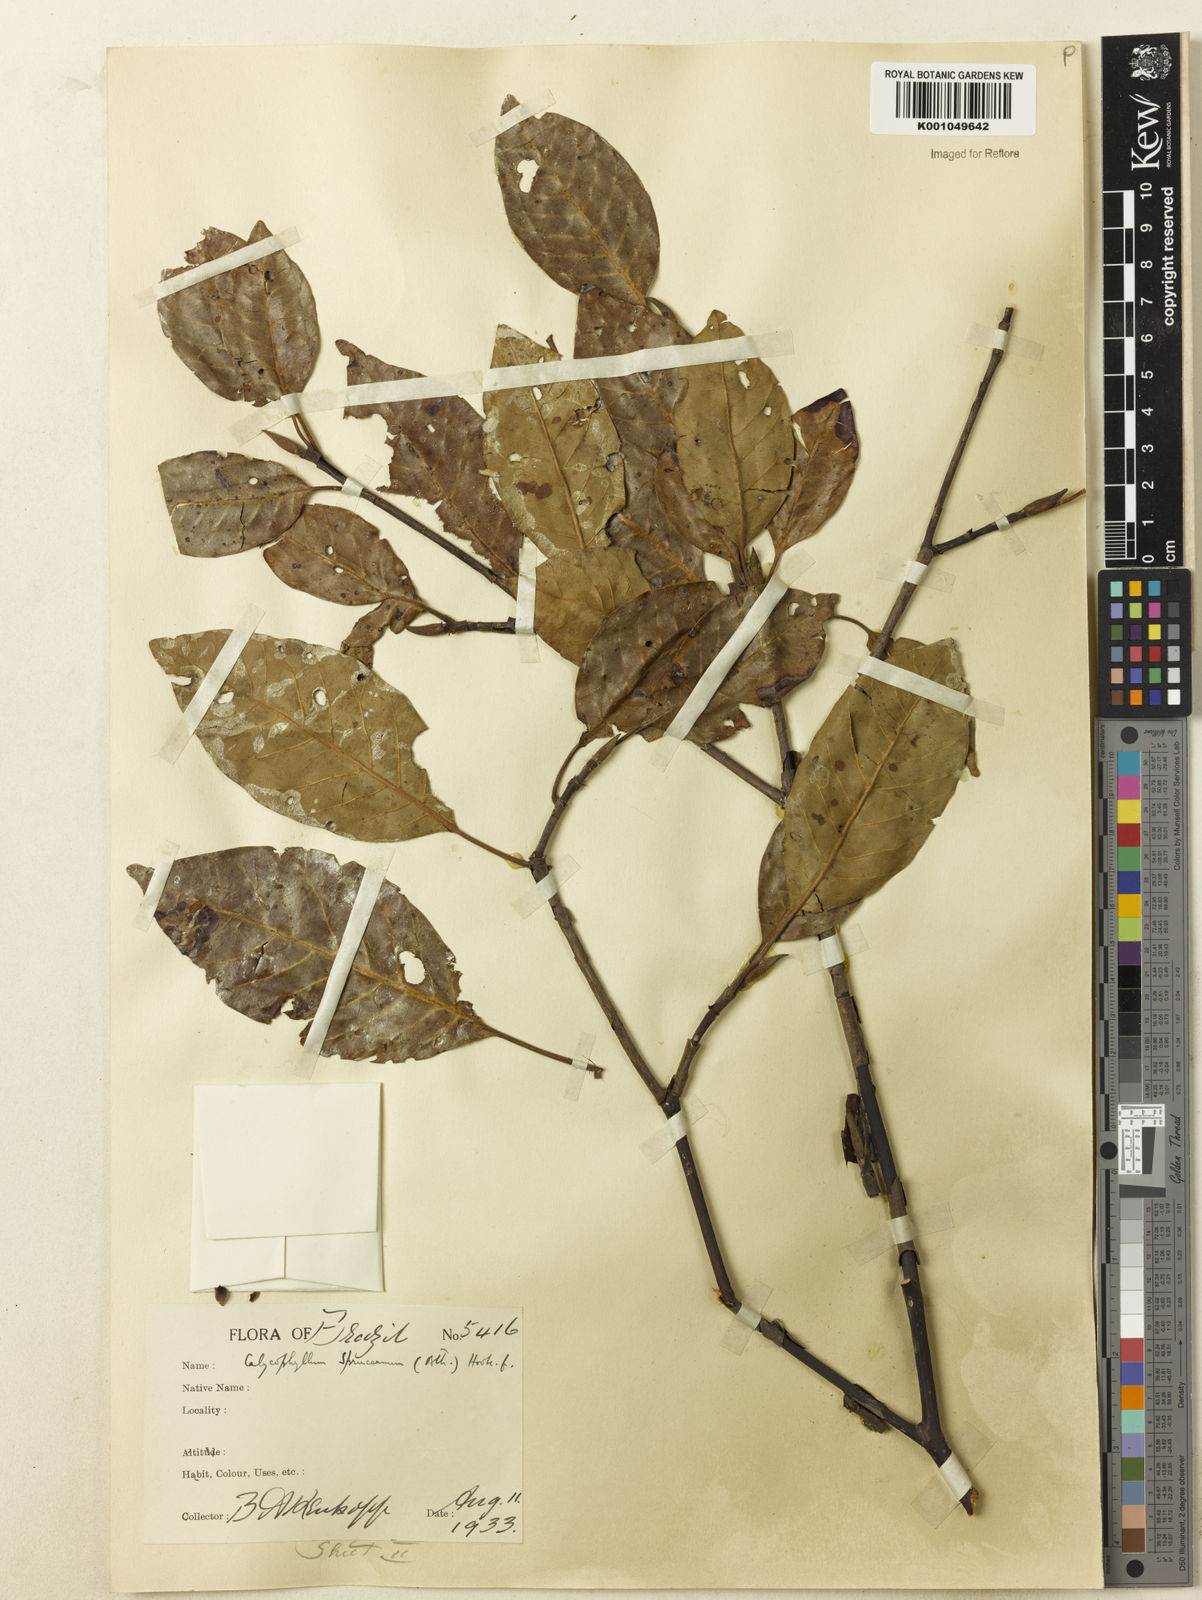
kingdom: Plantae
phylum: Tracheophyta
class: Magnoliopsida
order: Gentianales
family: Rubiaceae
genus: Calycophyllum
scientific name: Calycophyllum spruceanum
